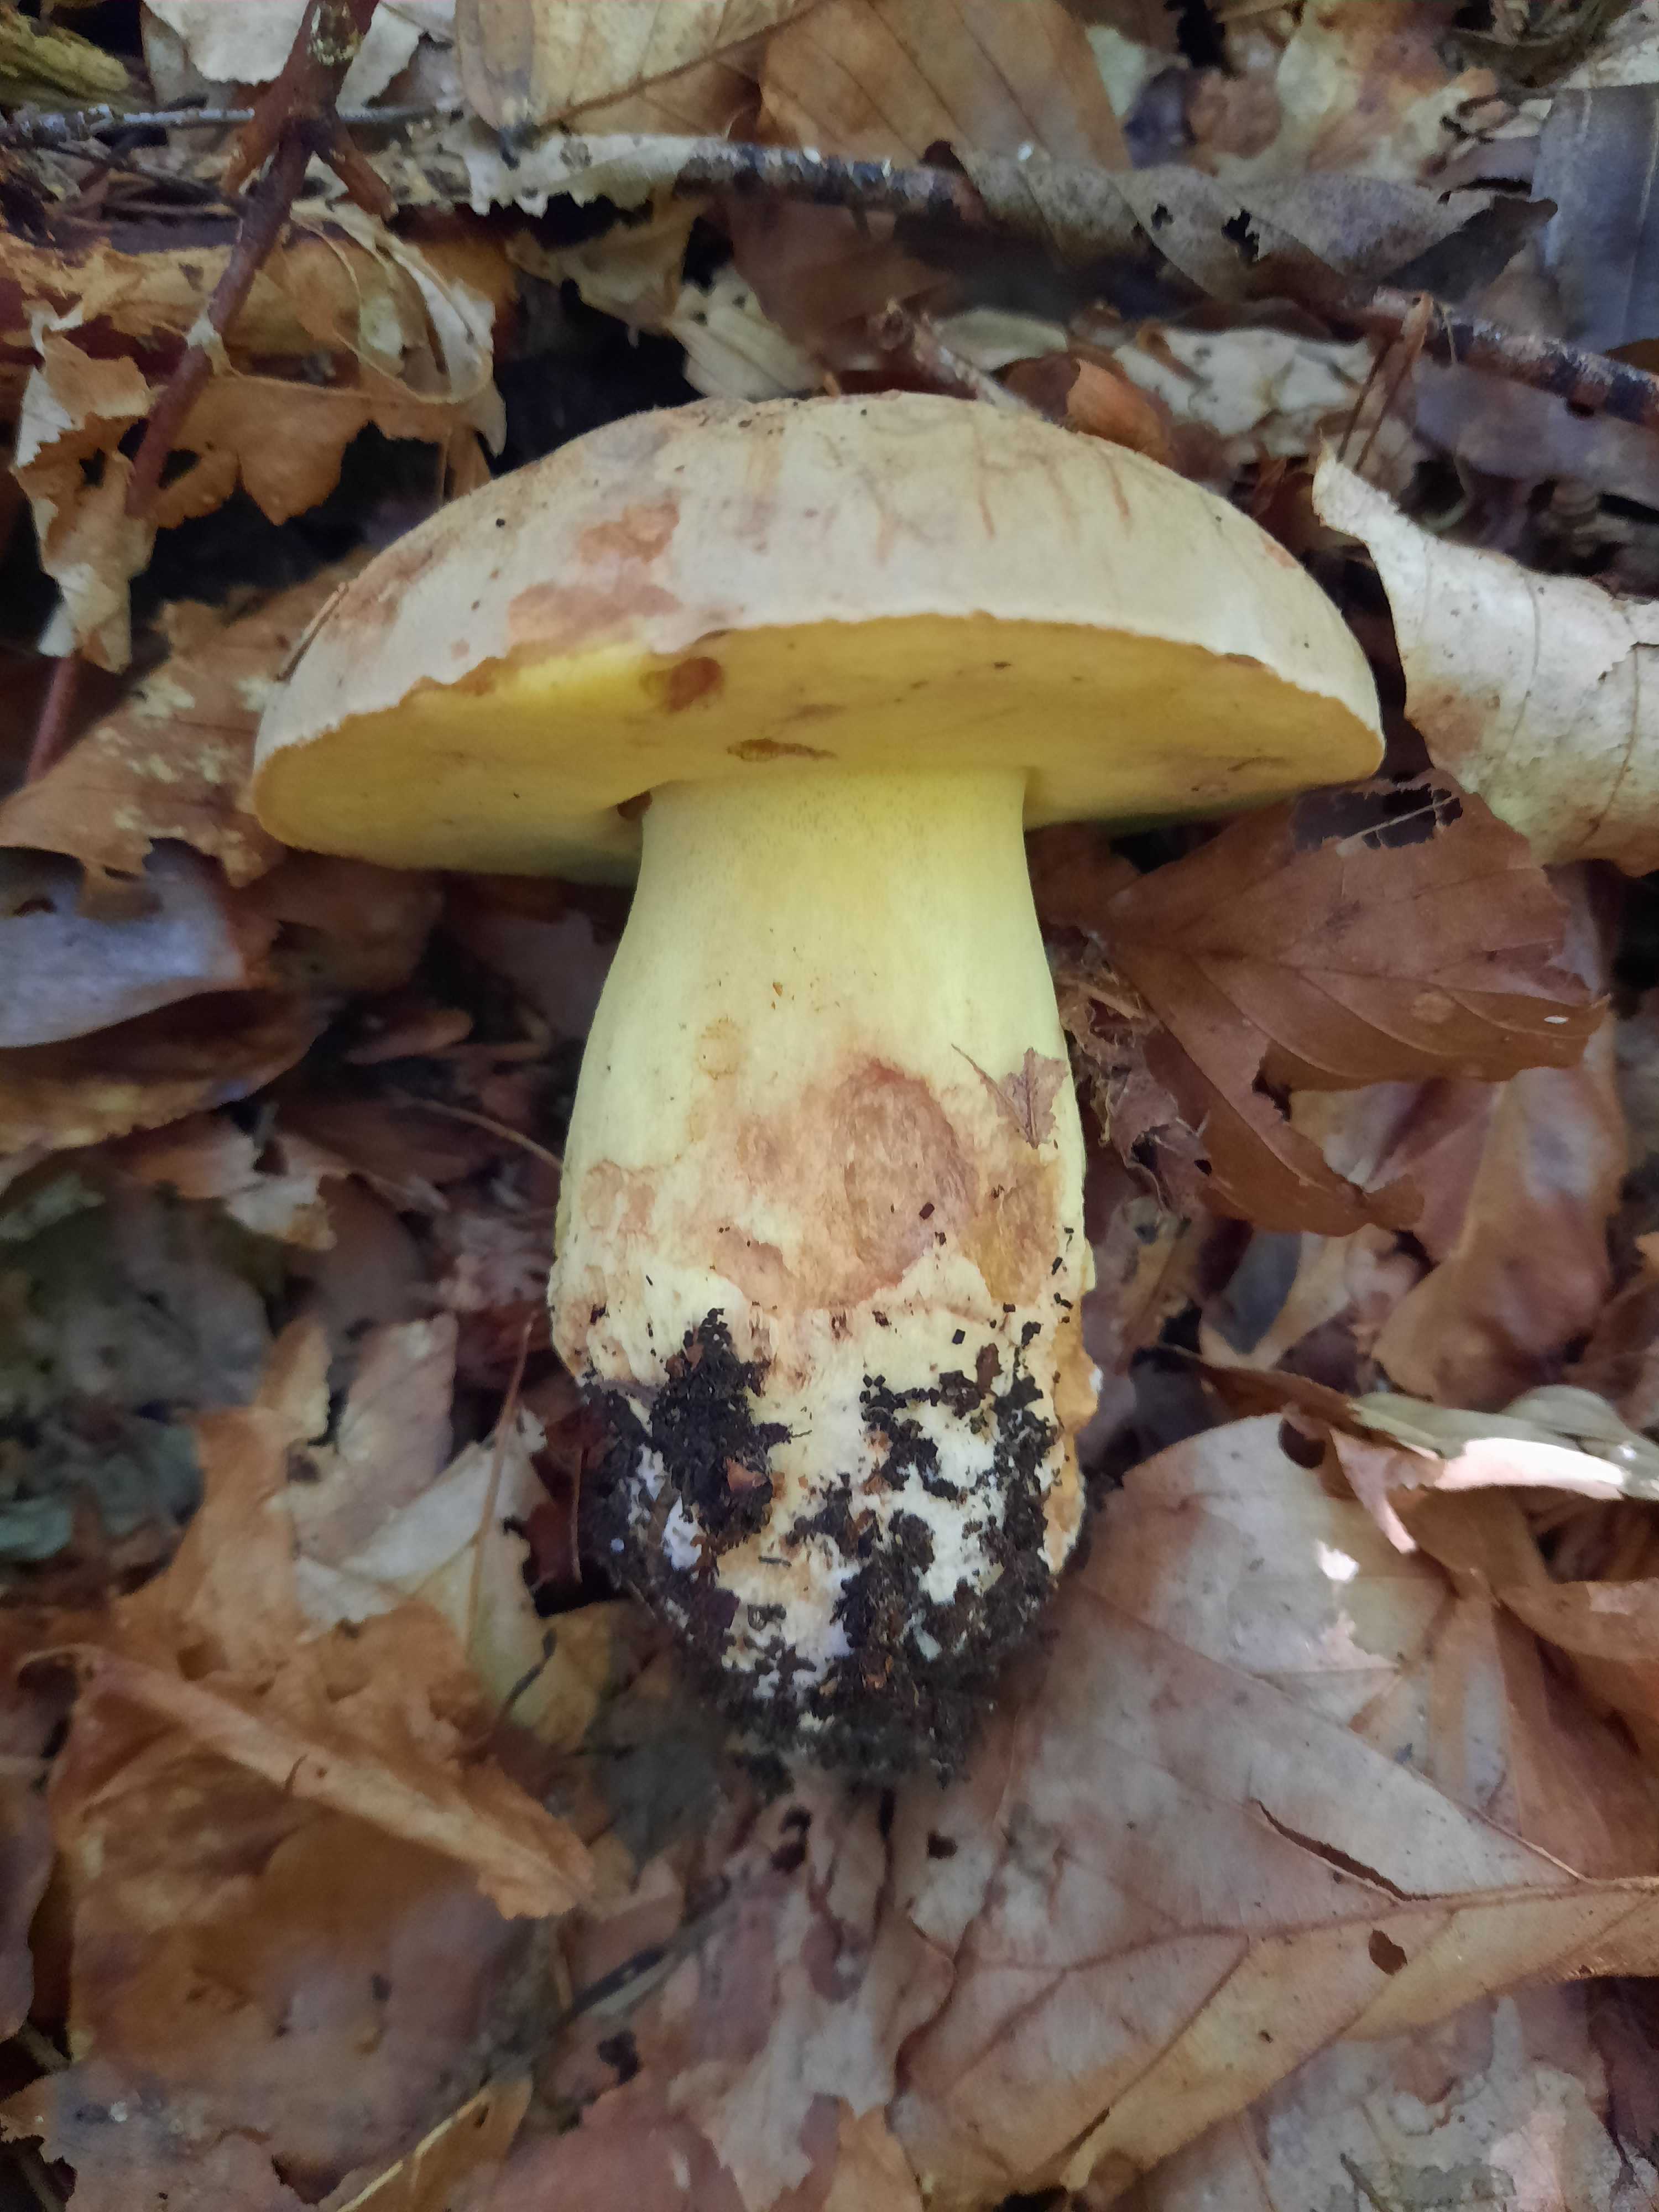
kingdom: Fungi
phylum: Basidiomycota
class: Agaricomycetes
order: Boletales
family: Boletaceae
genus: Butyriboletus
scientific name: Butyriboletus appendiculatus
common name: tenstokket rørhat
